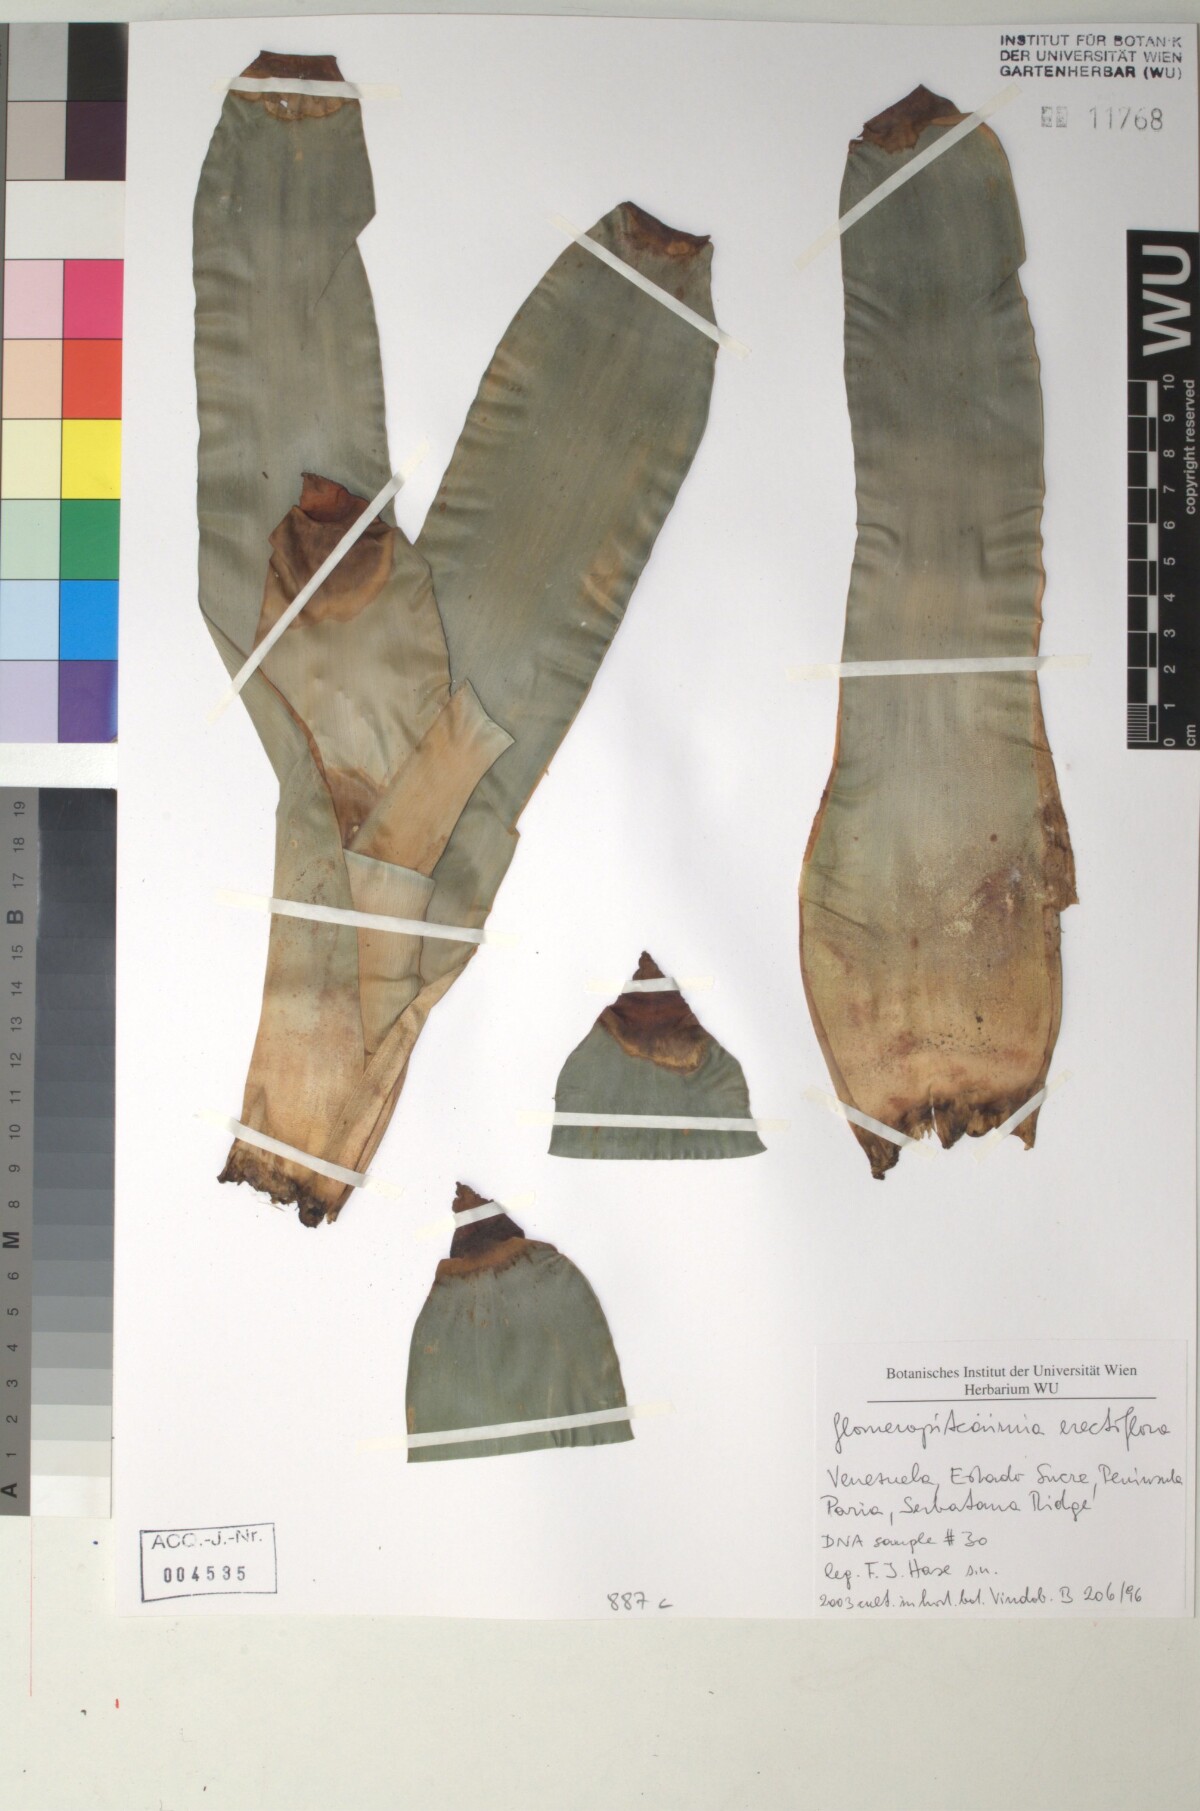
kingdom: Plantae
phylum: Tracheophyta
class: Liliopsida
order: Poales
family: Bromeliaceae
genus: Glomeropitcairnia
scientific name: Glomeropitcairnia erectiflora
